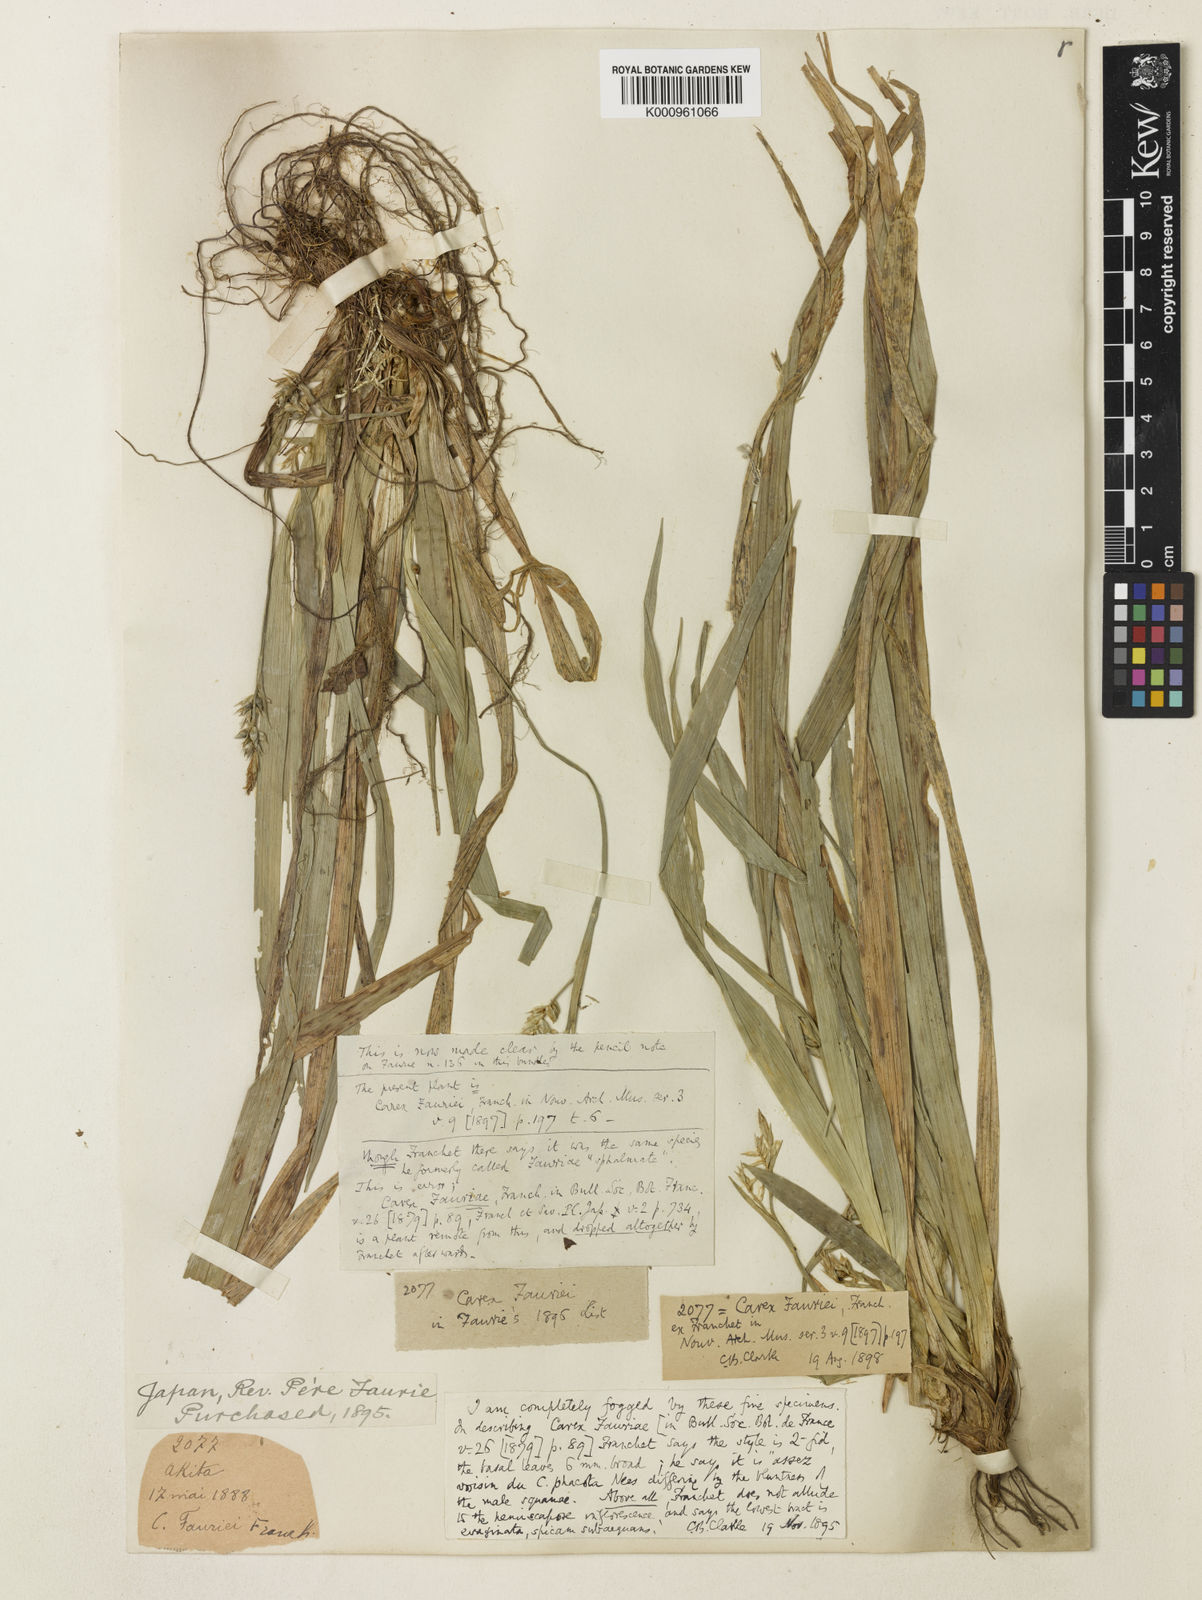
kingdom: Plantae
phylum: Tracheophyta
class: Liliopsida
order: Poales
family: Cyperaceae
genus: Carex
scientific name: Carex phacota
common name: Lakeshore sedge
